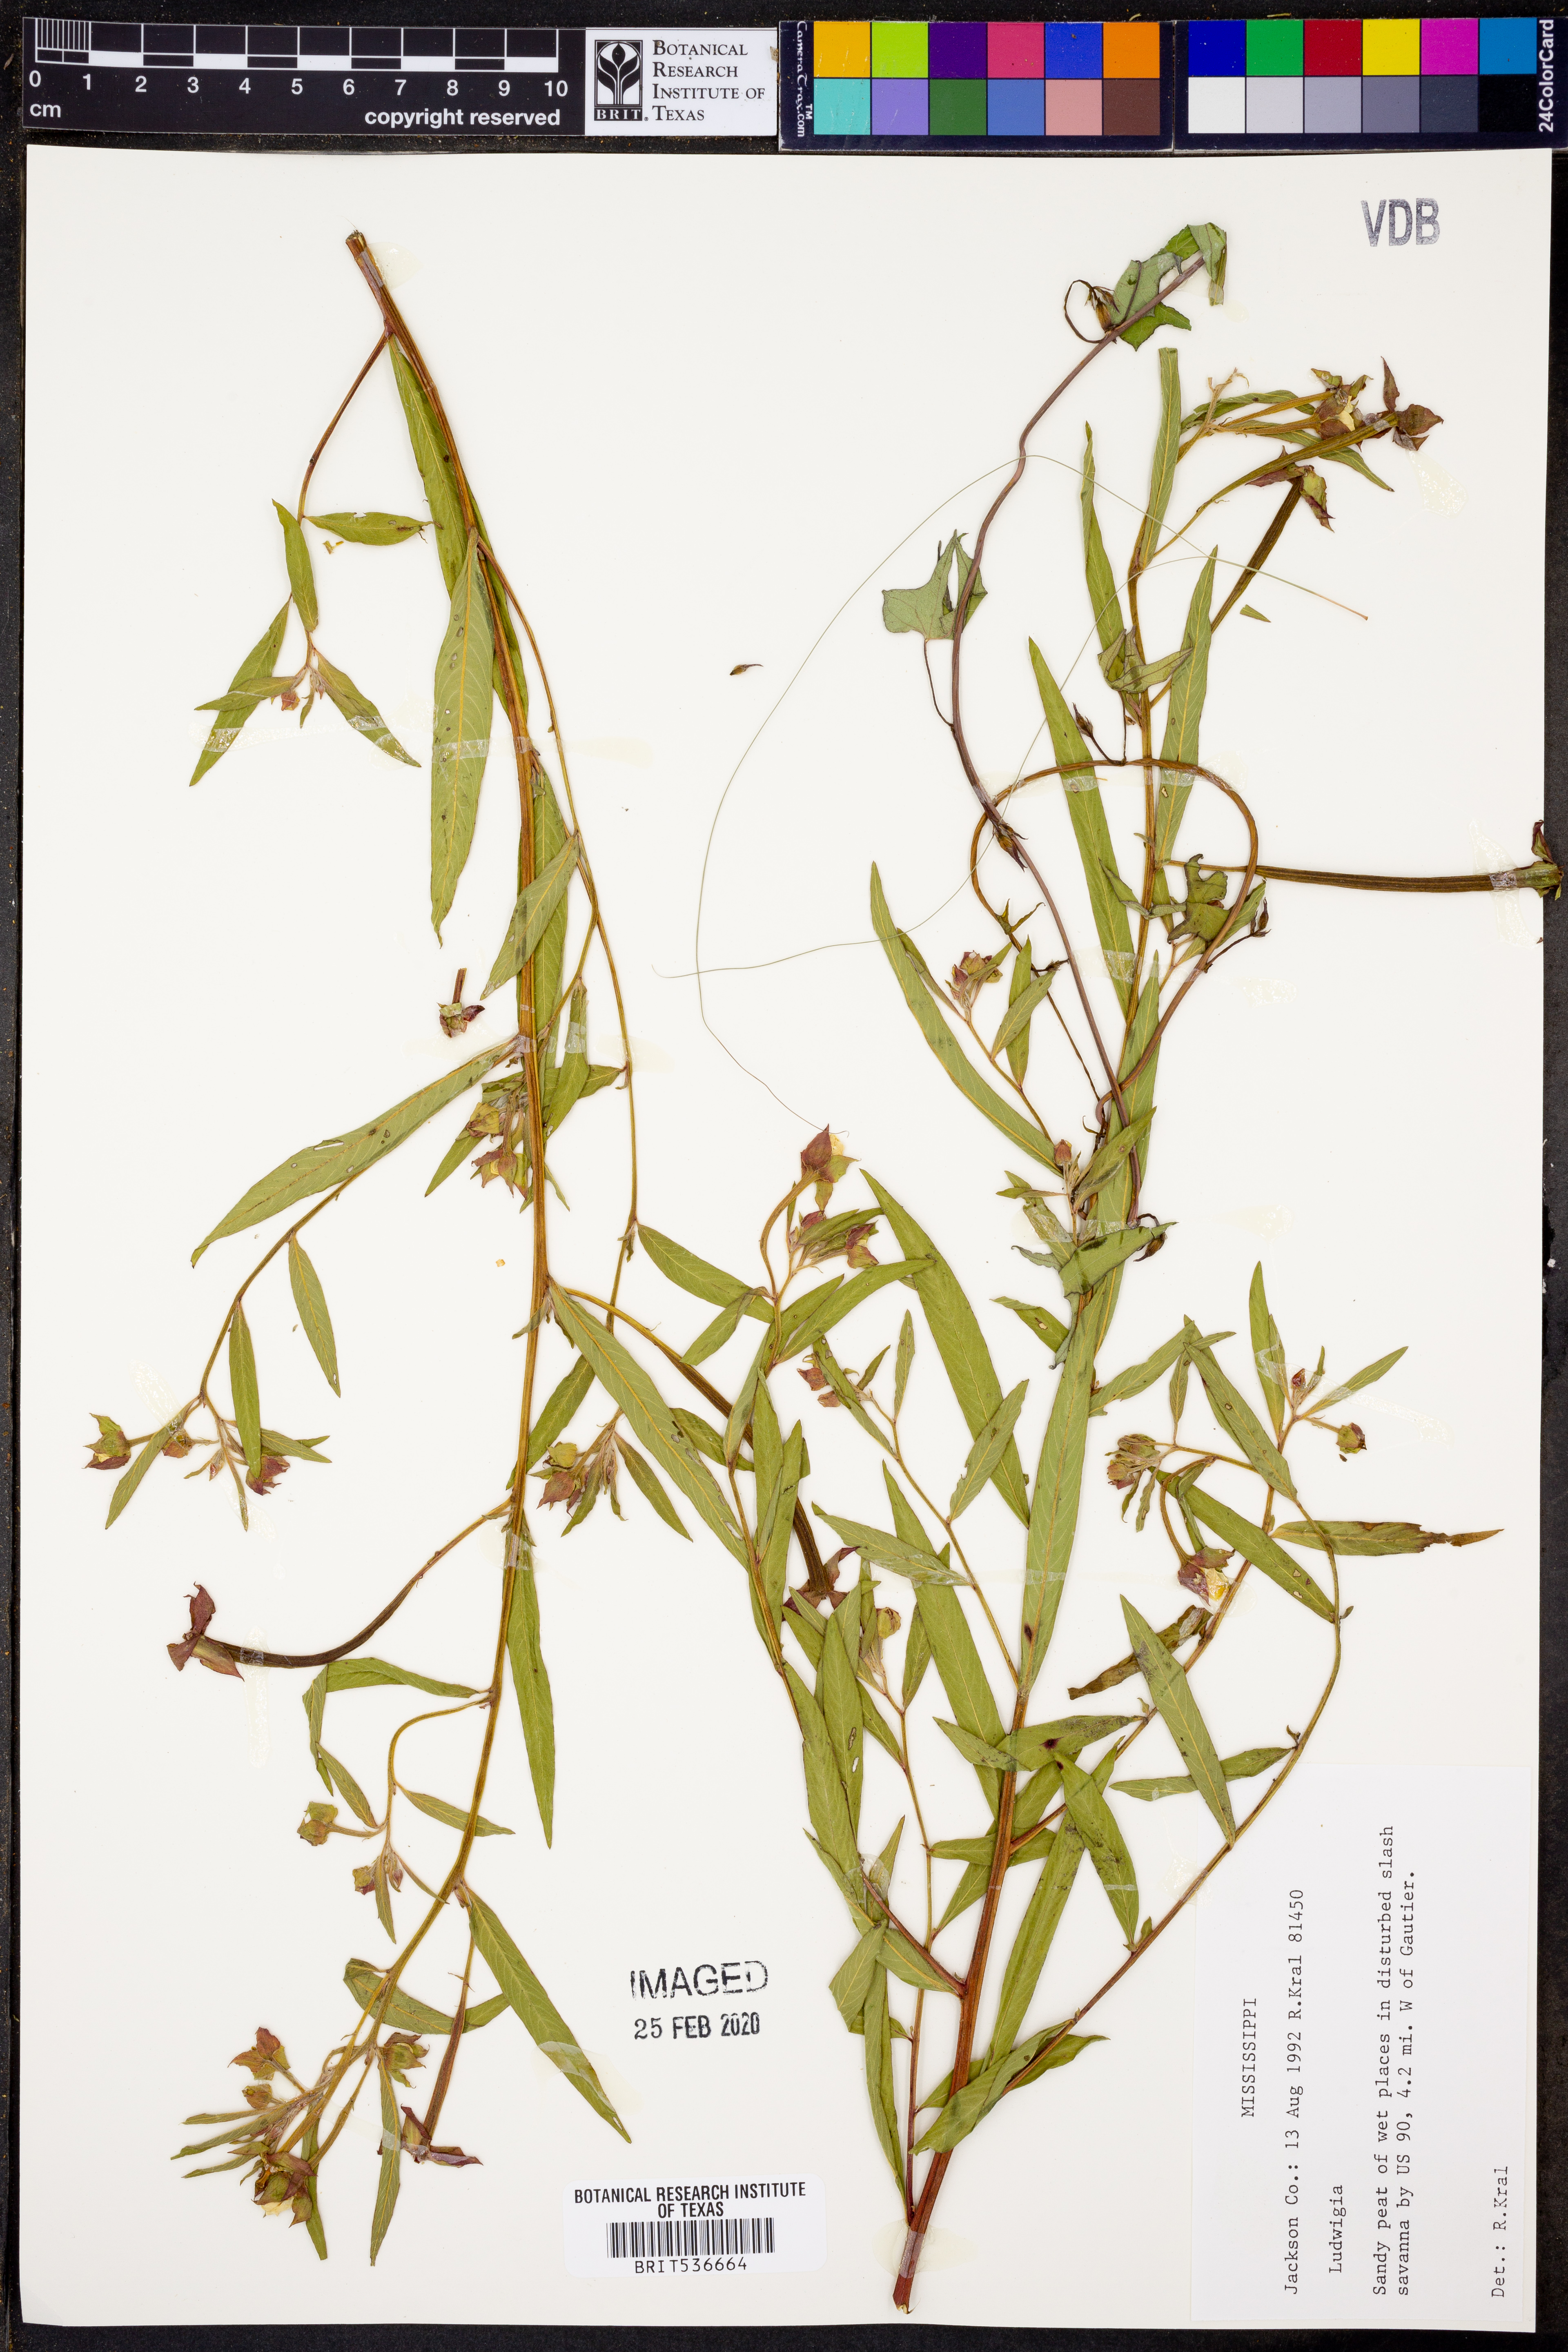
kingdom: Plantae
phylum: Tracheophyta
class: Magnoliopsida
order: Myrtales
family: Onagraceae
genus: Ludwigia
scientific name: Ludwigia
